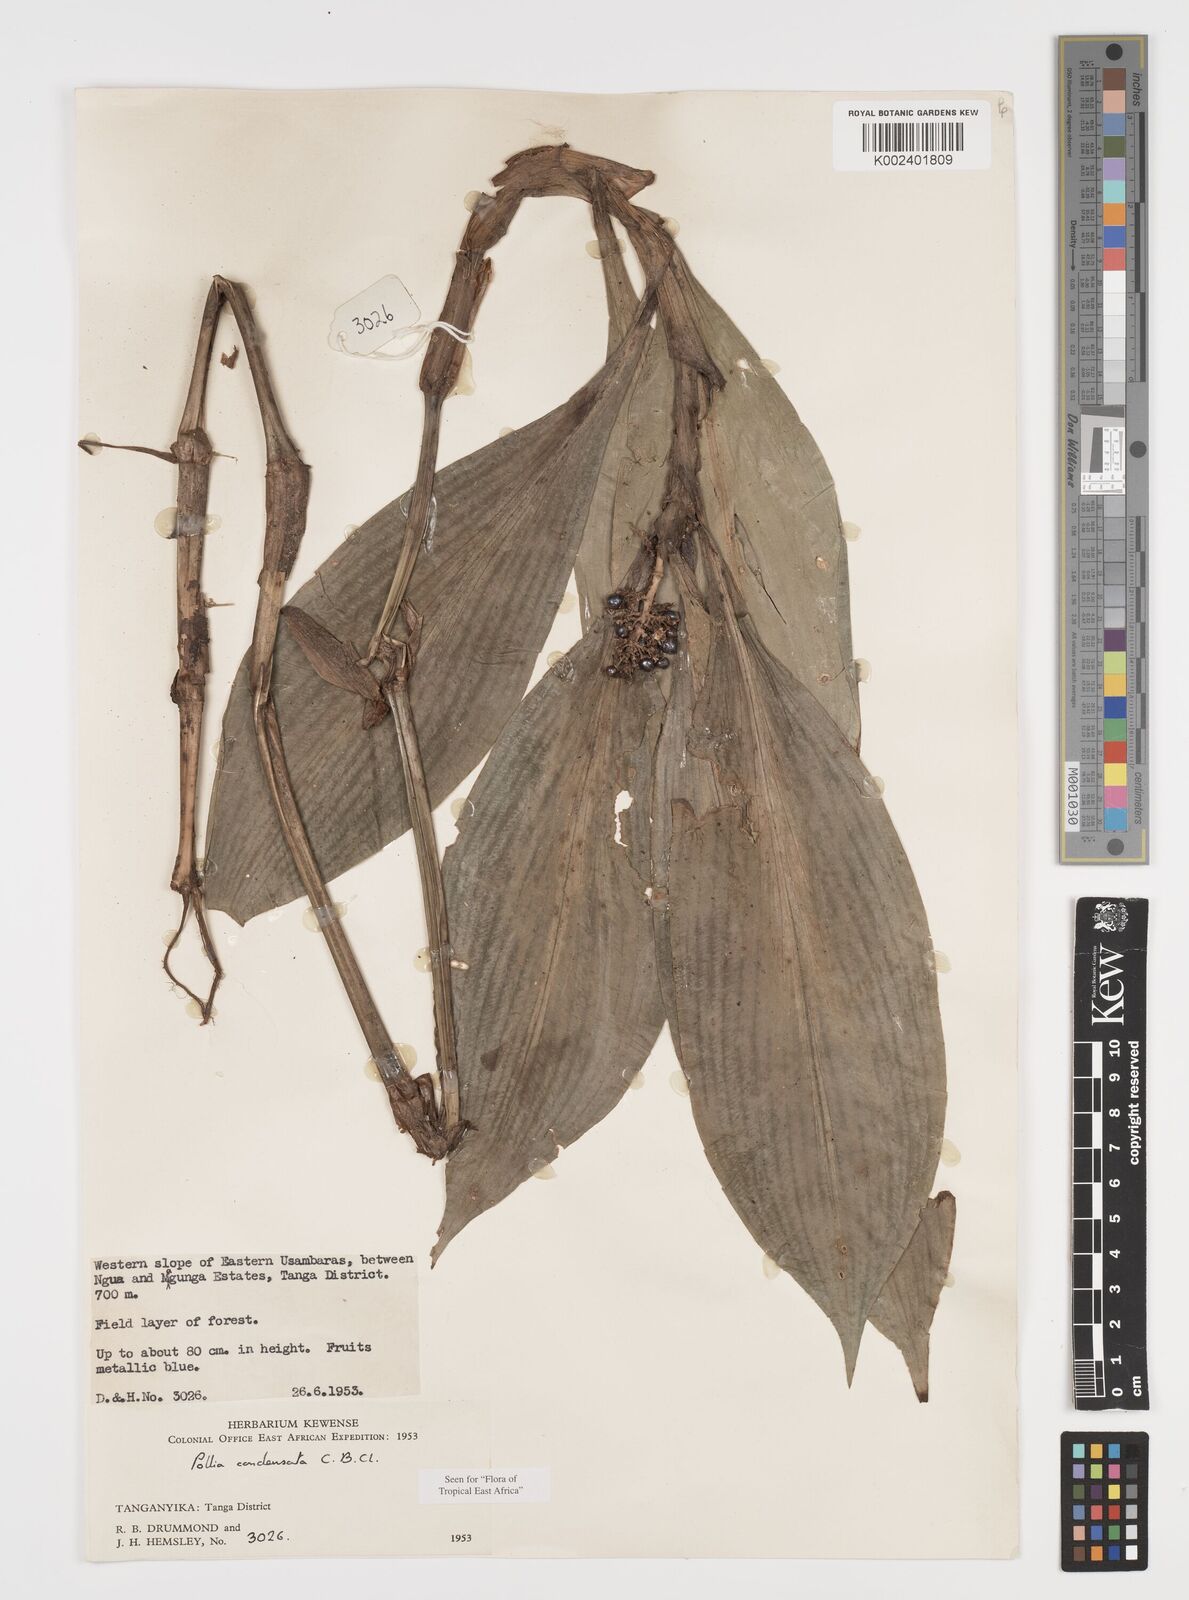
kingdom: Plantae
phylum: Tracheophyta
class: Liliopsida
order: Commelinales
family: Commelinaceae
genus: Pollia
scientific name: Pollia condensata
